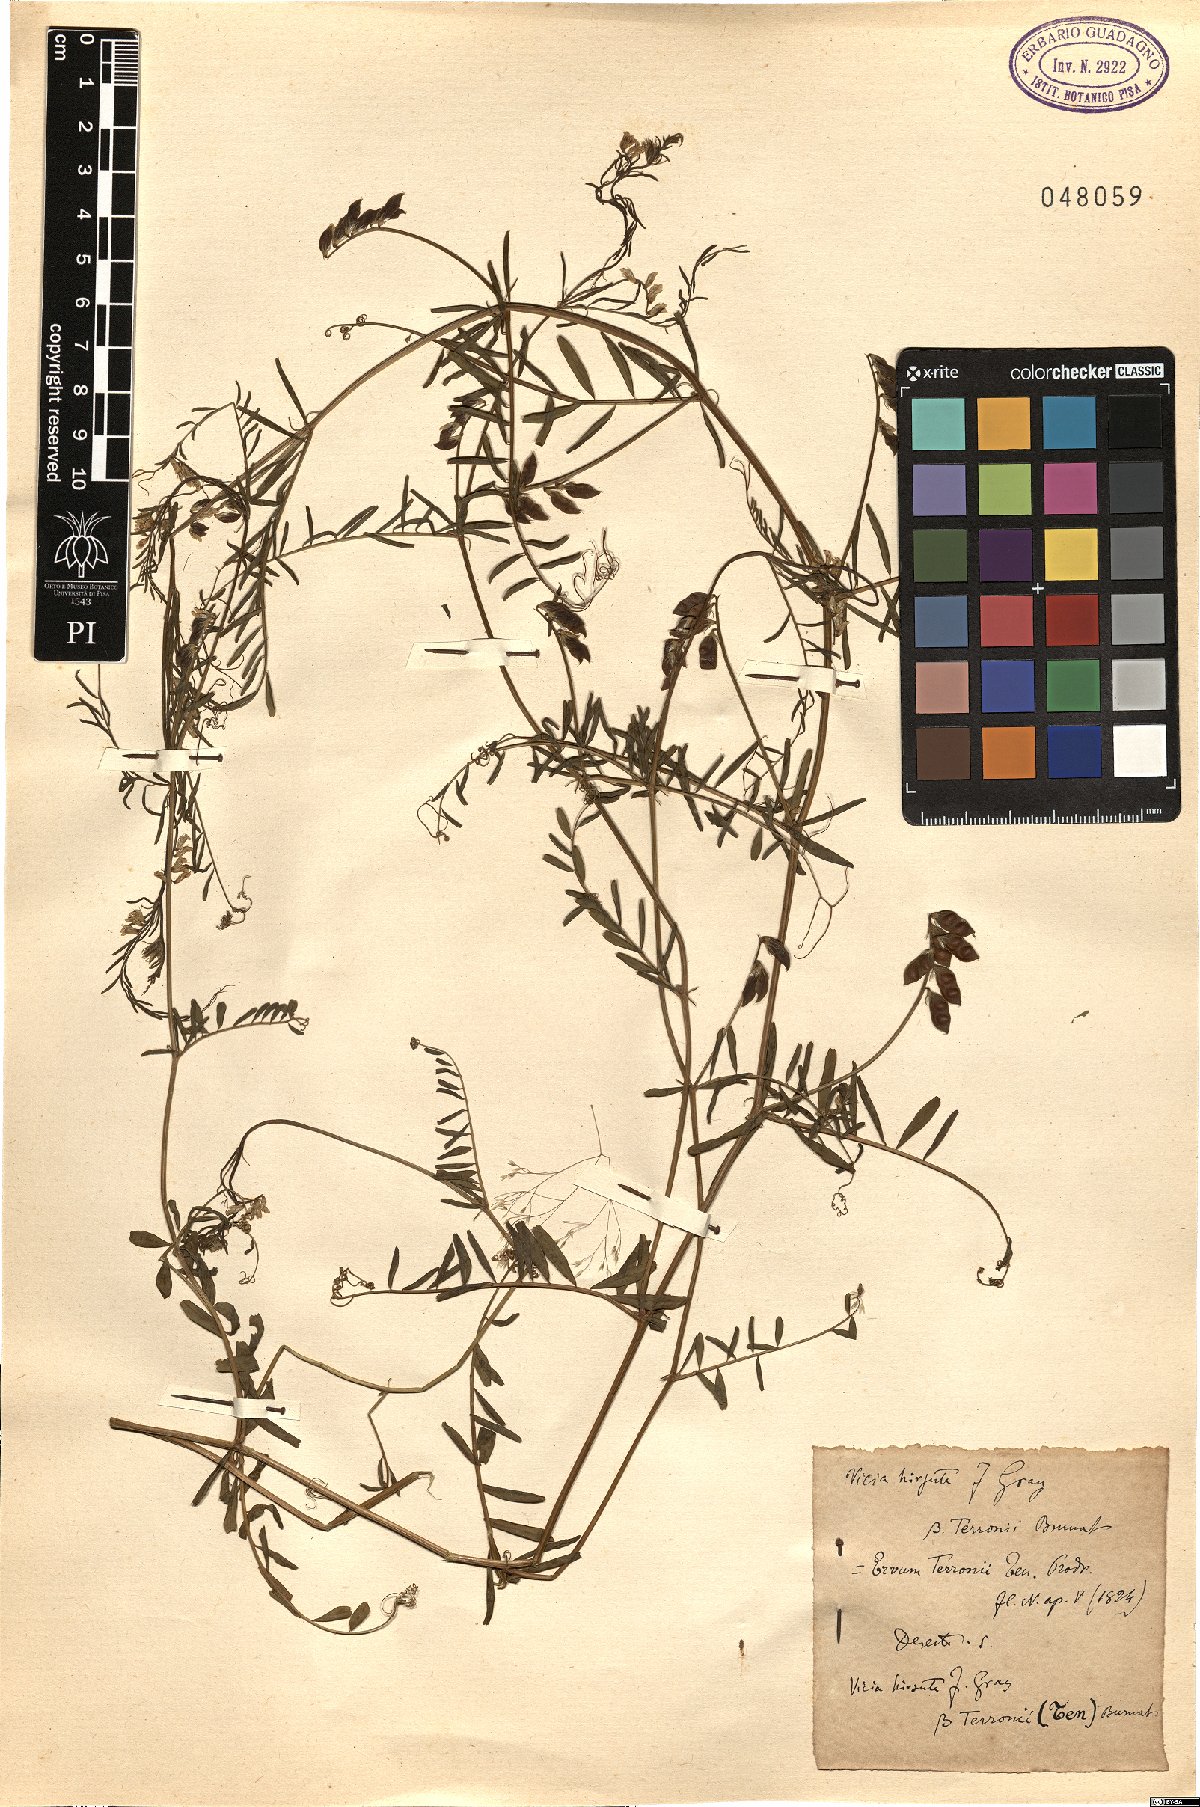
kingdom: Plantae
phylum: Tracheophyta
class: Magnoliopsida
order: Fabales
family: Fabaceae
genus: Vicia
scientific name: Vicia loiseleurii
